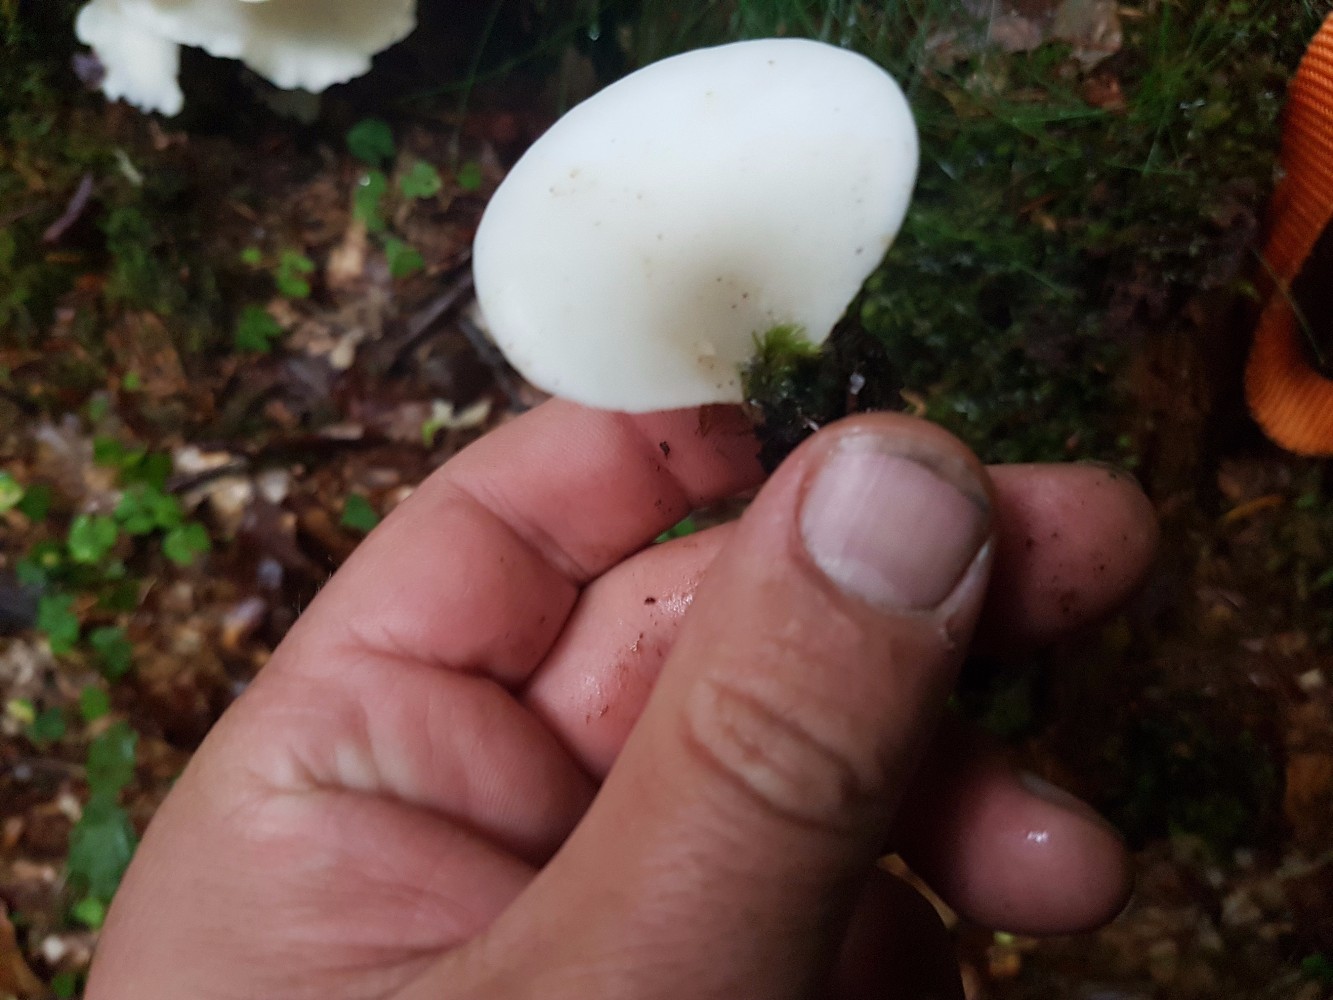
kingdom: Fungi
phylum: Basidiomycota
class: Agaricomycetes
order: Agaricales
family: Marasmiaceae
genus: Pleurocybella
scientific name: Pleurocybella
